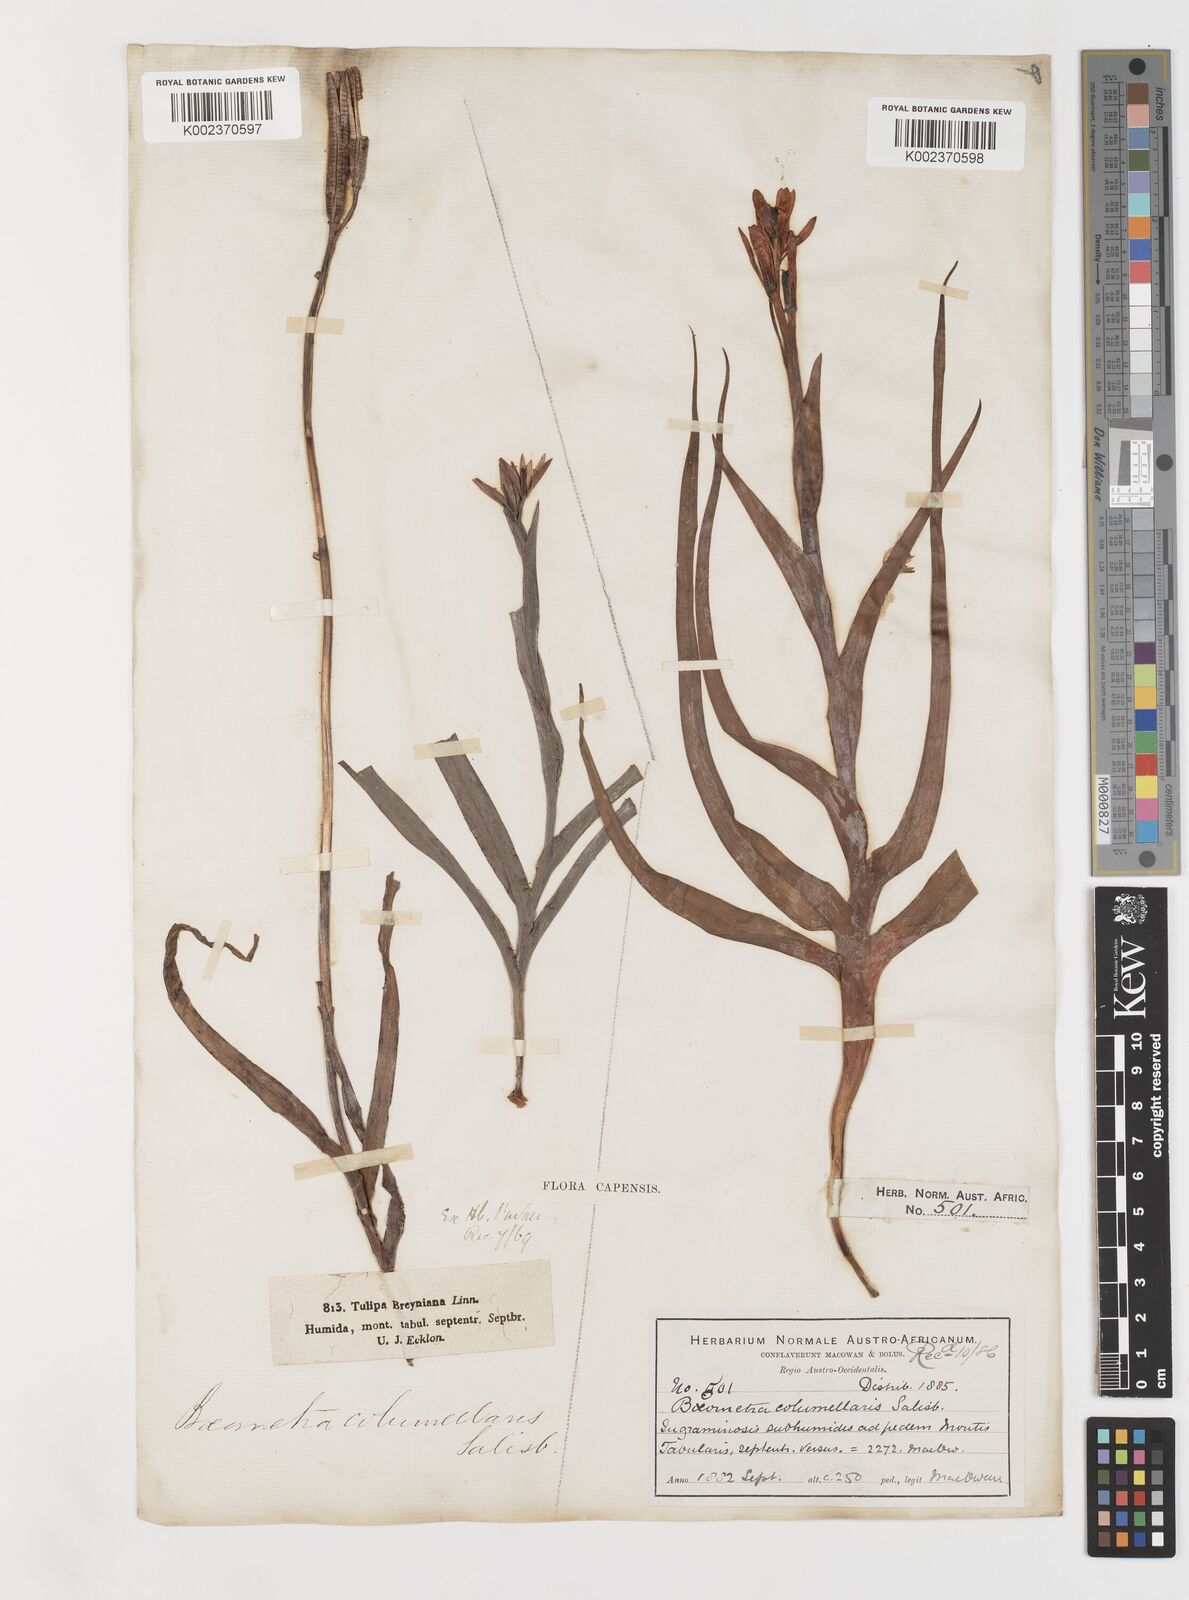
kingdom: Plantae
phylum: Tracheophyta
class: Liliopsida
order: Liliales
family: Colchicaceae
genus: Baeometra
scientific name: Baeometra uniflora
